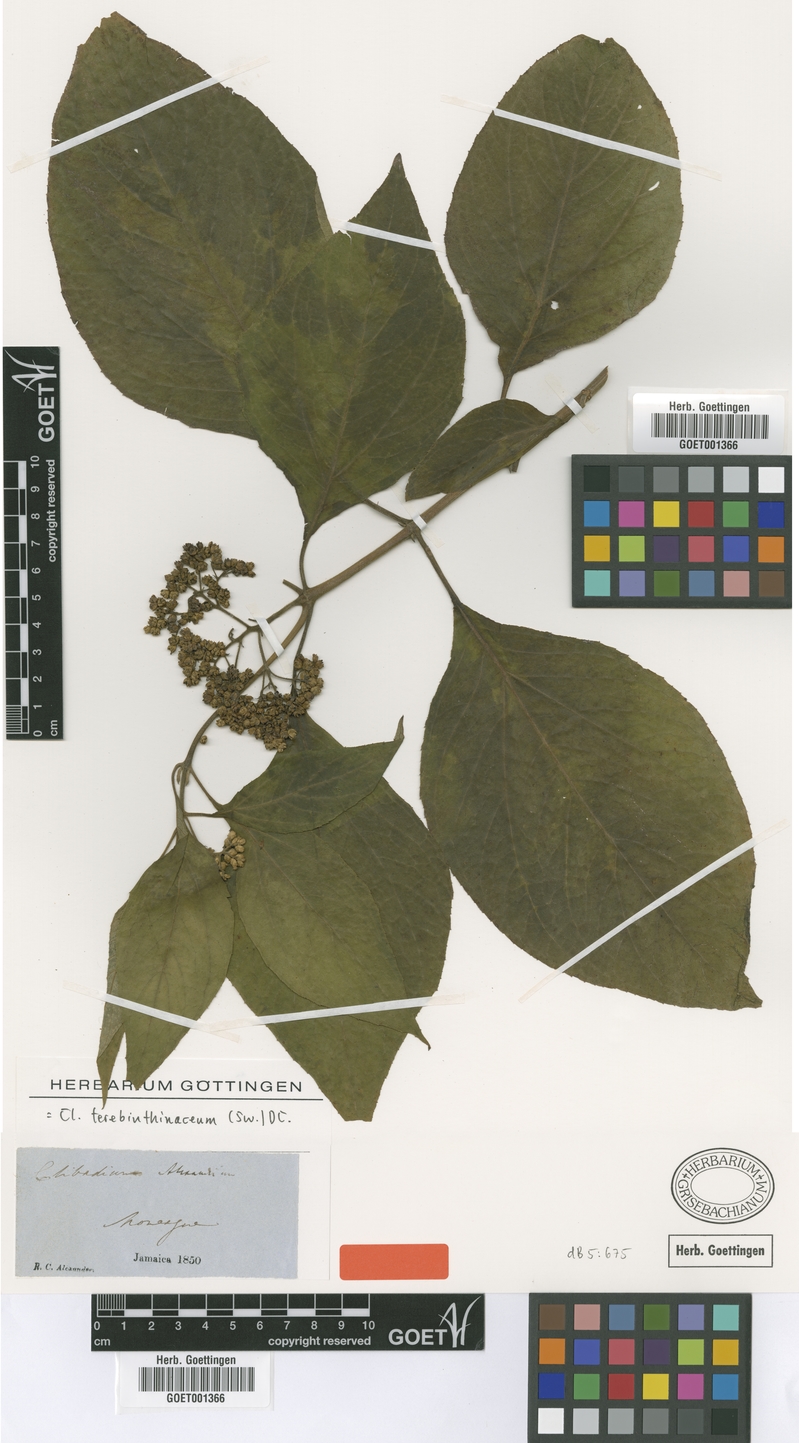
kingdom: Plantae
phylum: Tracheophyta
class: Magnoliopsida
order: Asterales
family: Asteraceae
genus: Clibadium
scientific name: Clibadium terebinthinaceum
